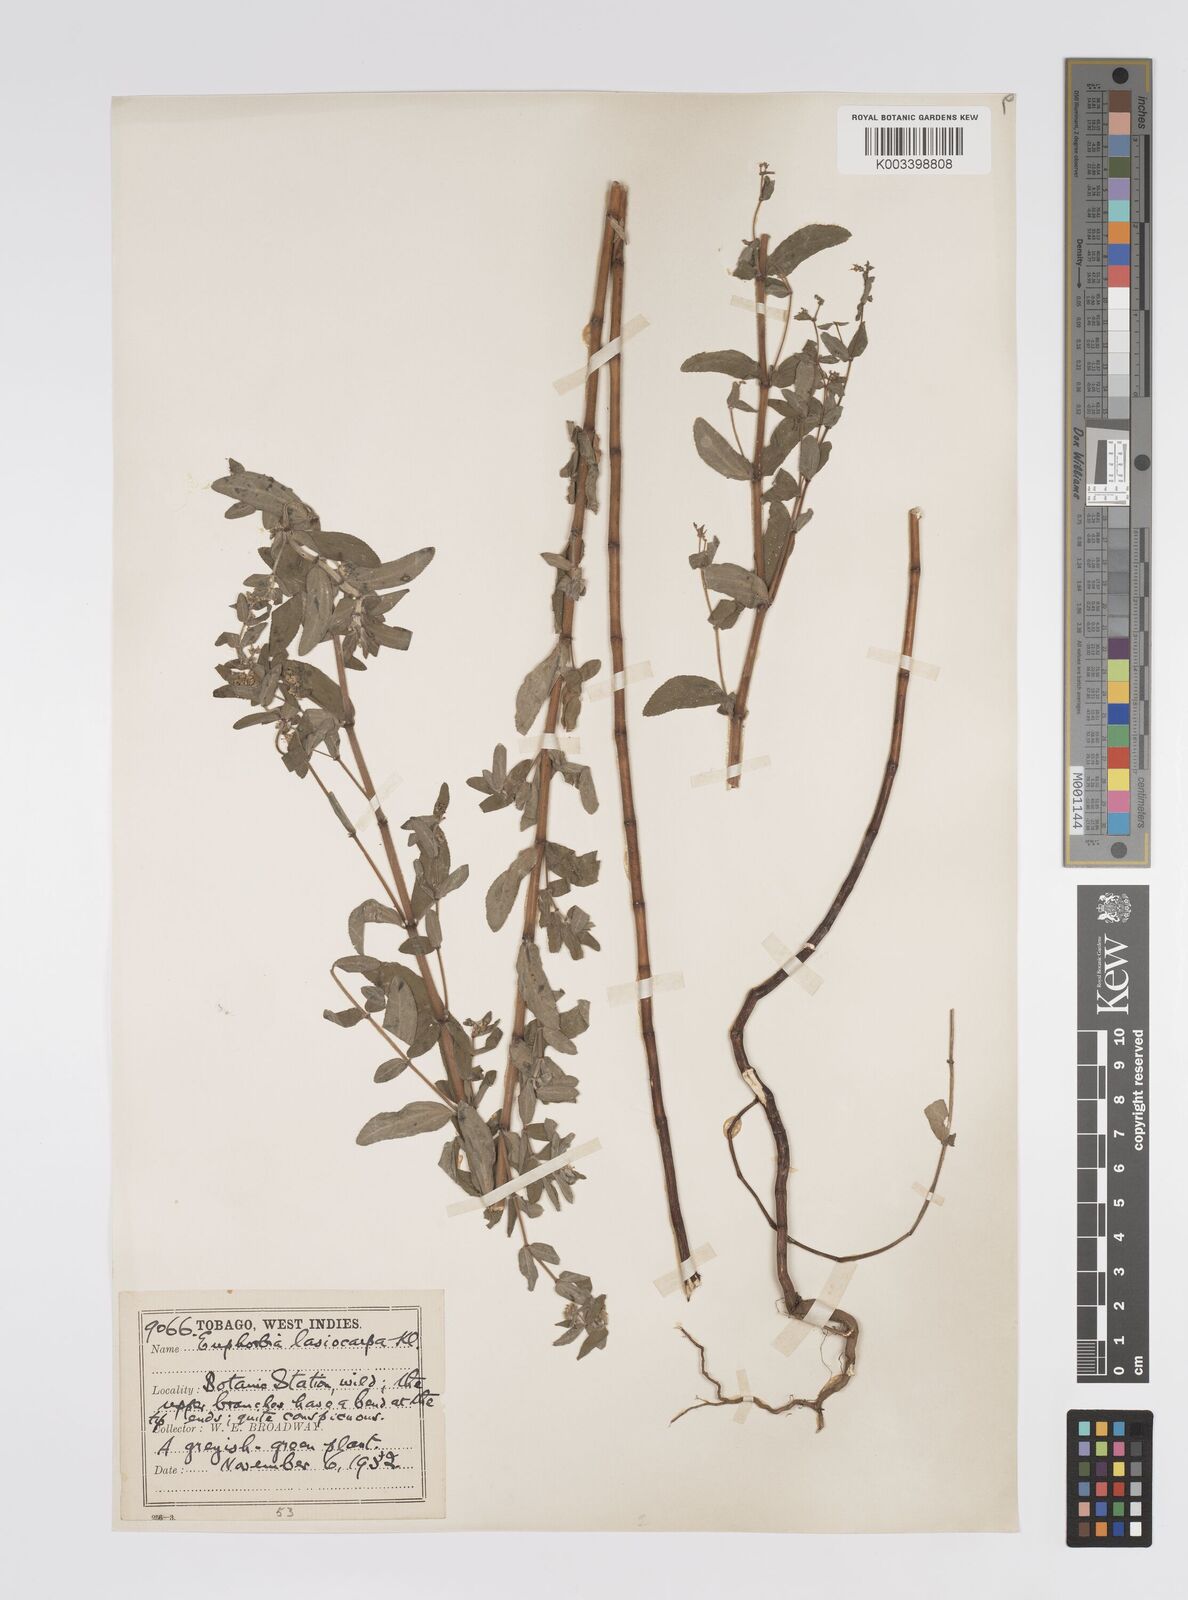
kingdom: Plantae
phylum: Tracheophyta
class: Magnoliopsida
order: Malpighiales
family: Euphorbiaceae
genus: Euphorbia
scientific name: Euphorbia lasiocarpa
